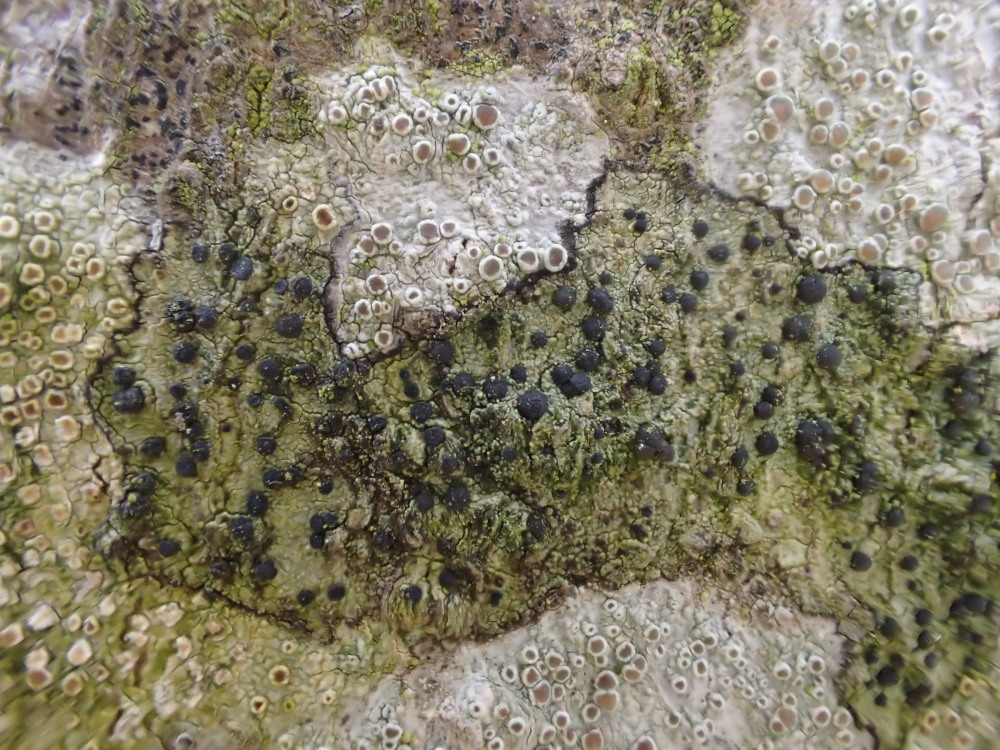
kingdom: Fungi
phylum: Ascomycota
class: Lecanoromycetes
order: Lecanorales
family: Lecanoraceae
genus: Lecidella
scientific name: Lecidella elaeochroma
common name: grågrøn skivelav
